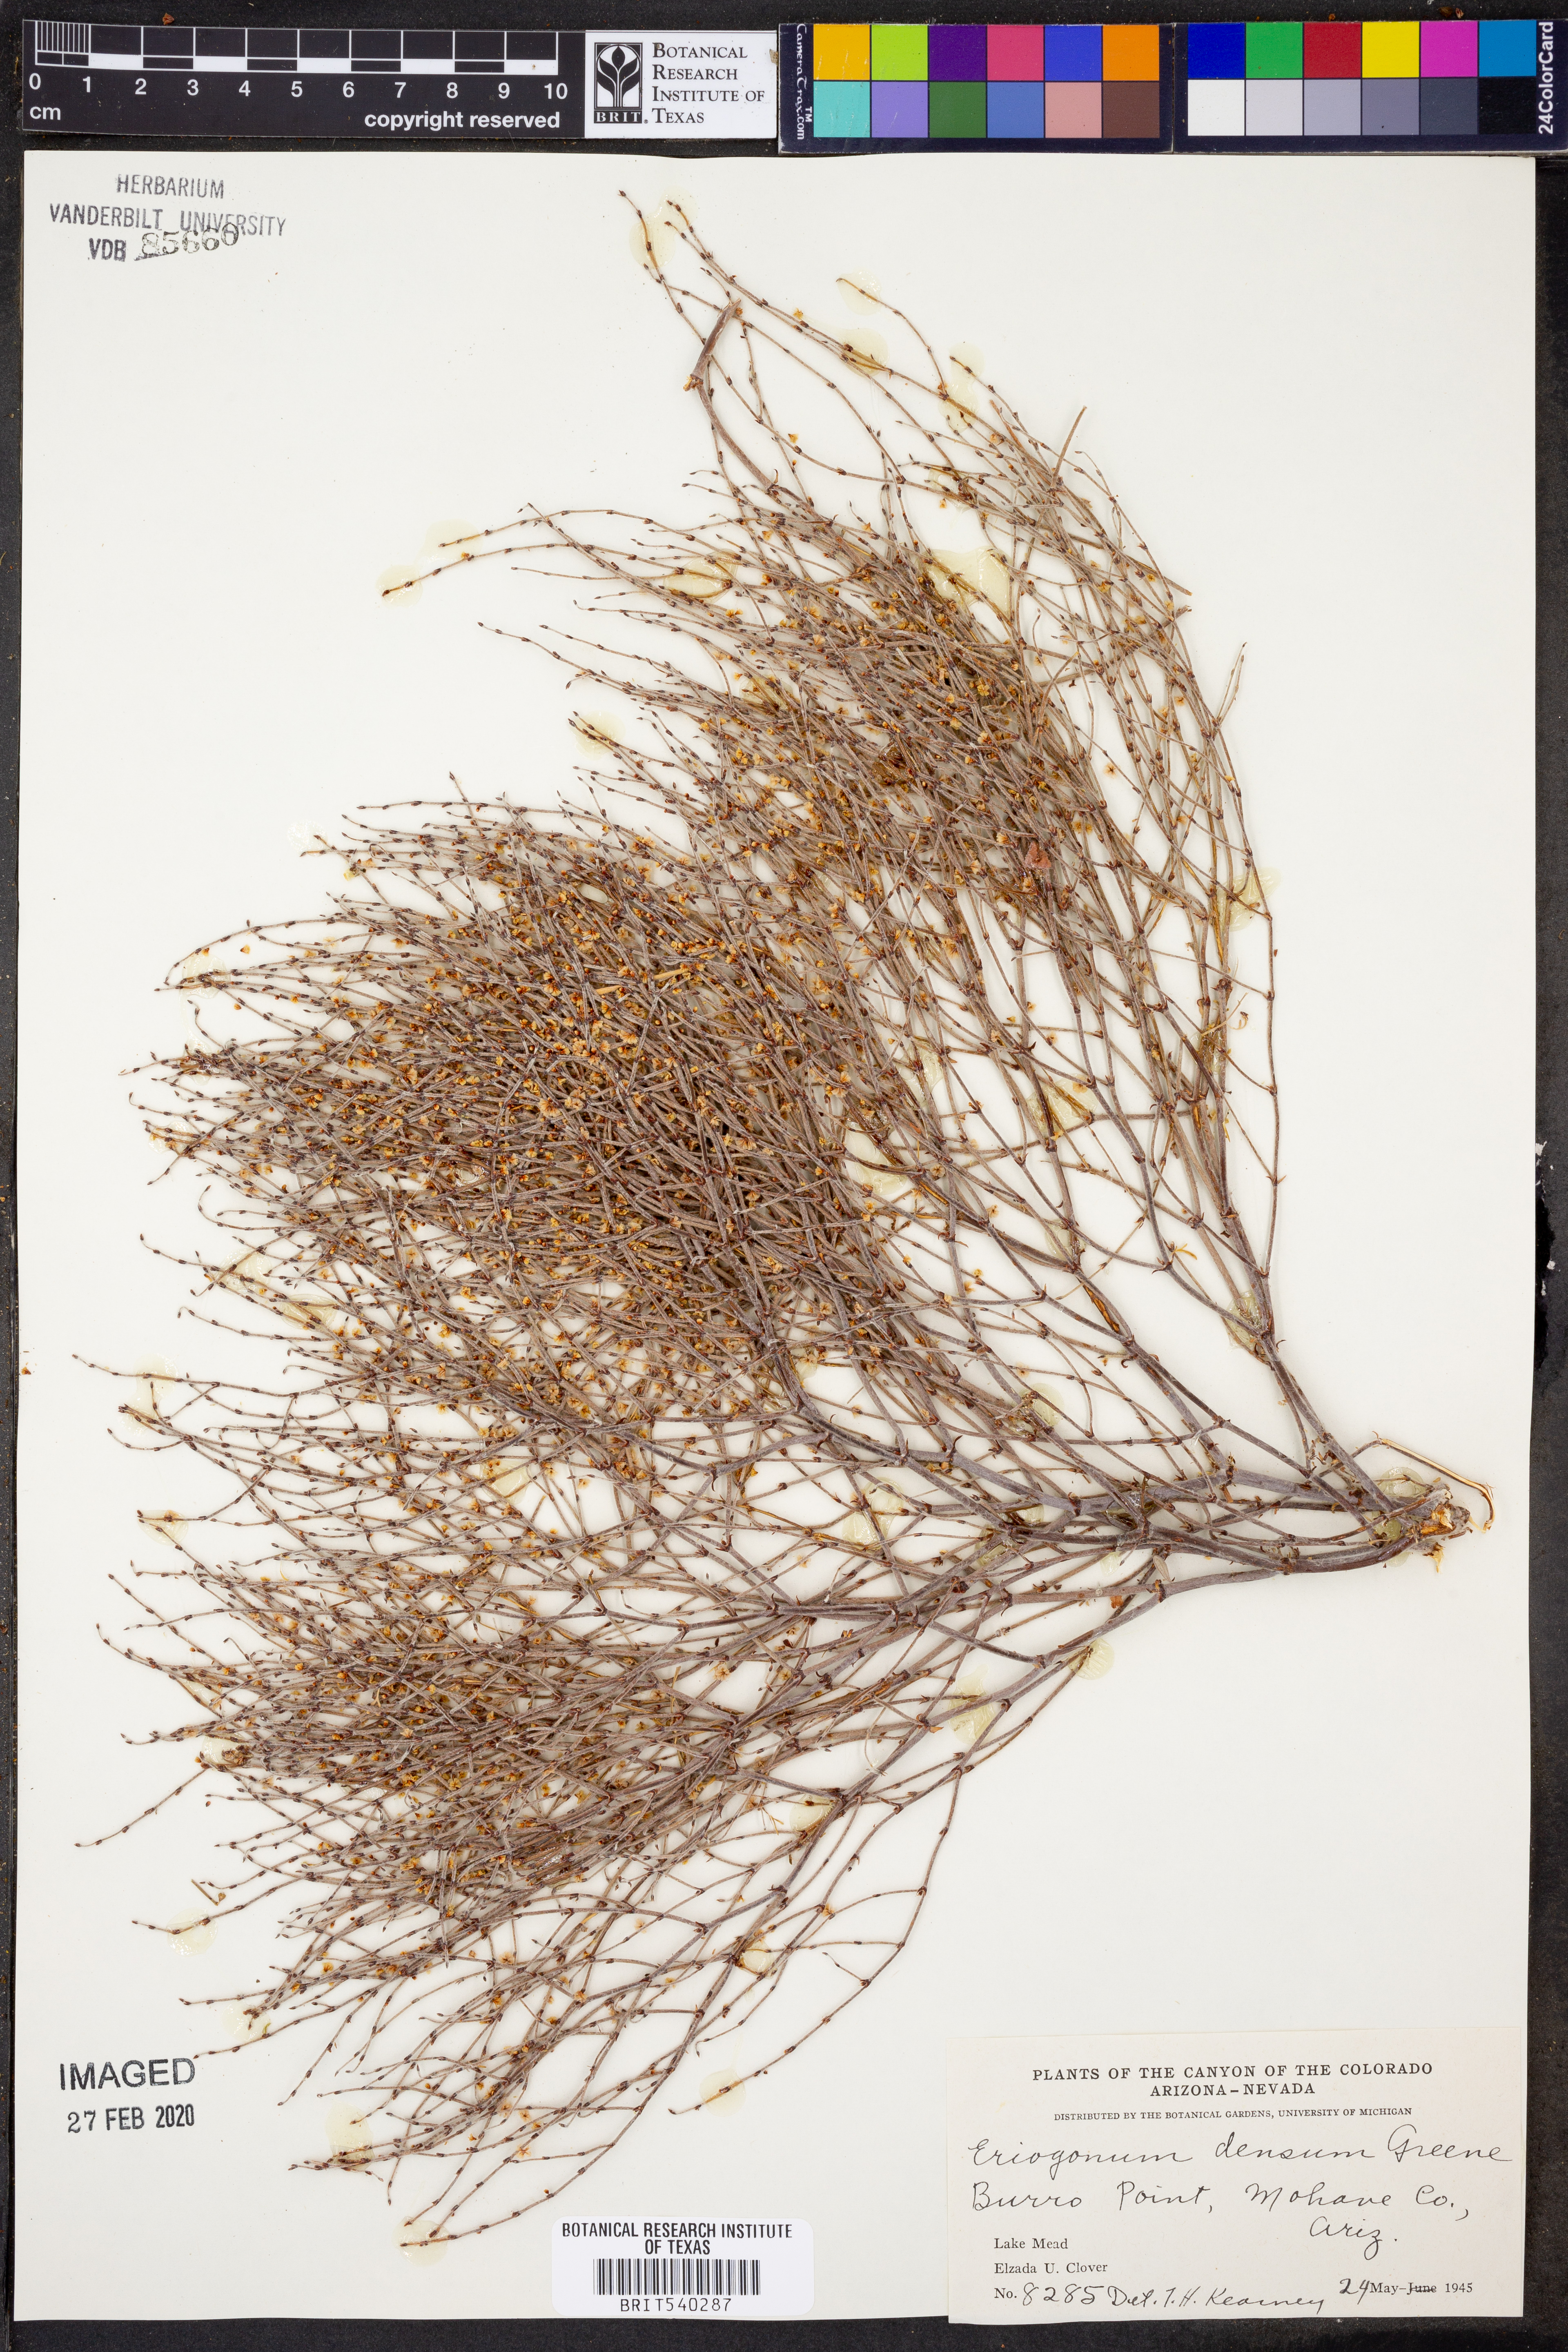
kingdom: Plantae
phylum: Tracheophyta
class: Magnoliopsida
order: Caryophyllales
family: Polygonaceae
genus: Eriogonum
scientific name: Eriogonum polycladon
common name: Sorrel wild buckwheat
